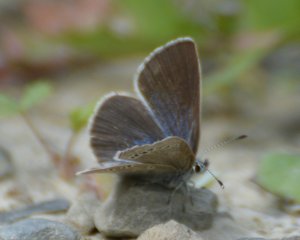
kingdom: Animalia
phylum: Arthropoda
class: Insecta
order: Lepidoptera
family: Lycaenidae
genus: Glaucopsyche
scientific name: Glaucopsyche lygdamus
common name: Silvery Blue
